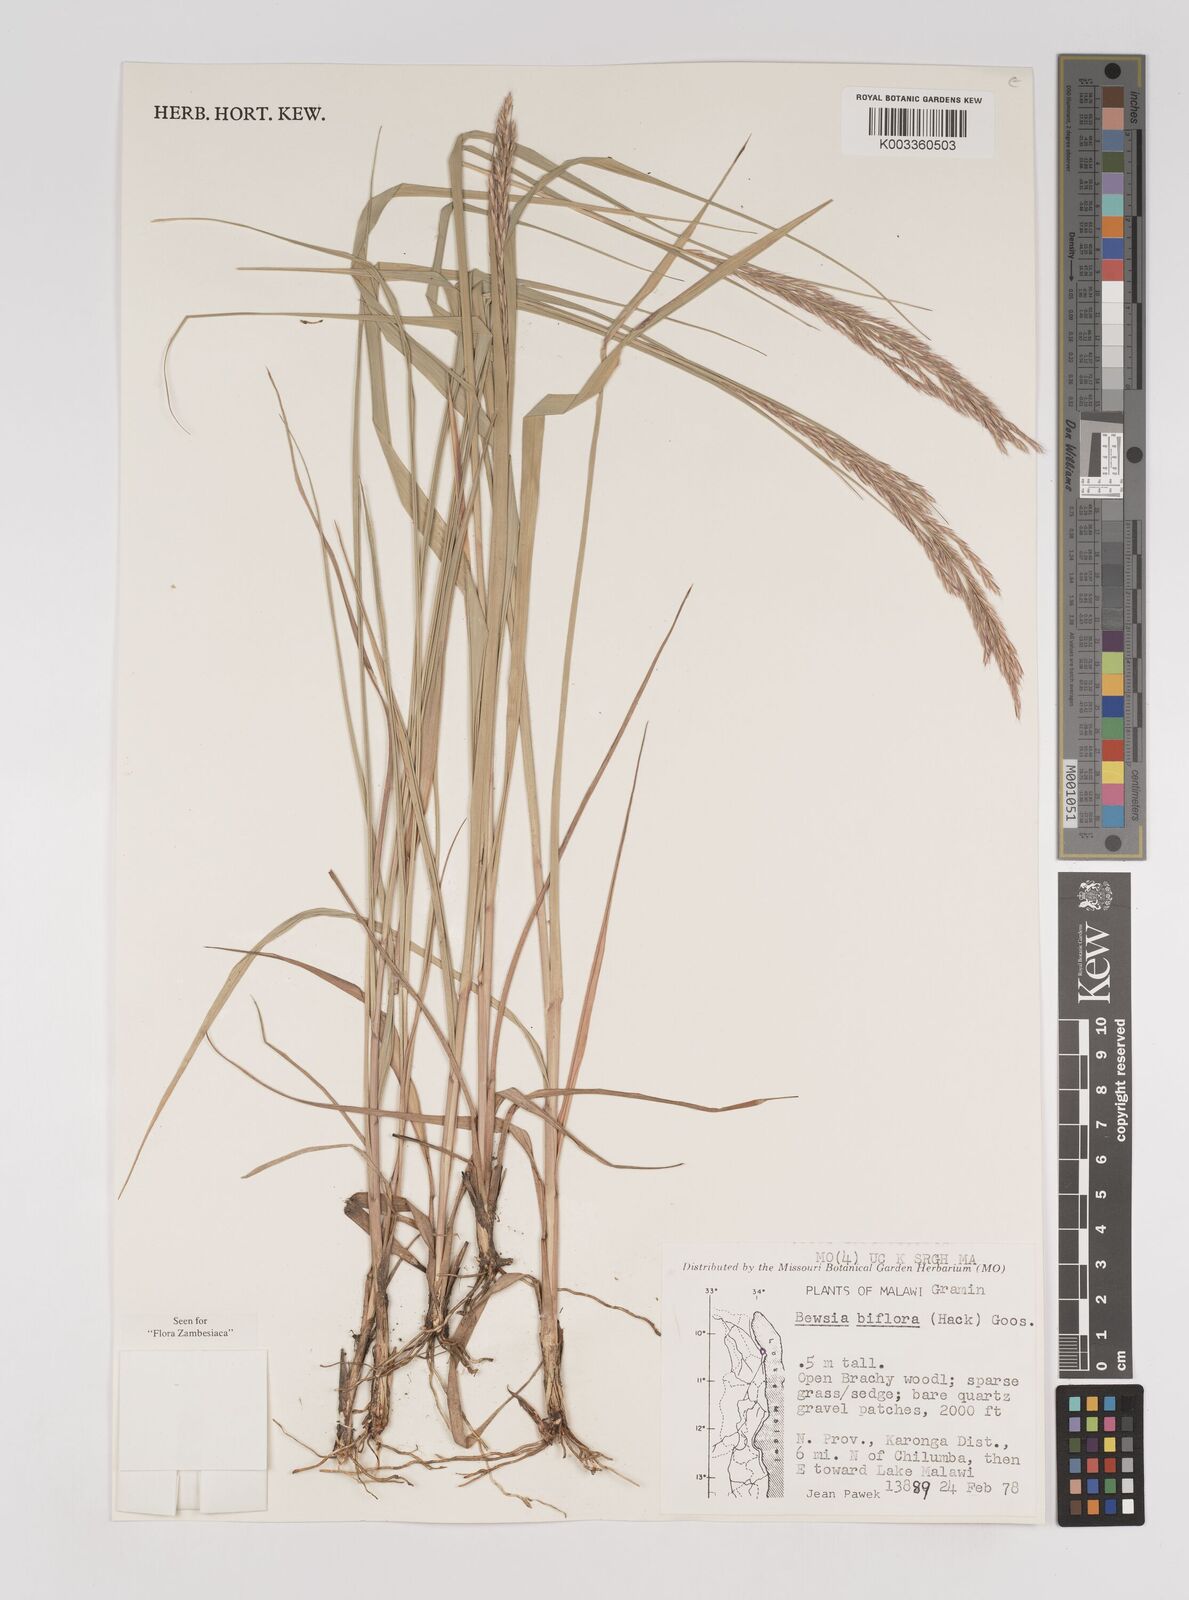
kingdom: Plantae
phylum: Tracheophyta
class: Liliopsida
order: Poales
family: Poaceae
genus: Bewsia
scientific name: Bewsia biflora
